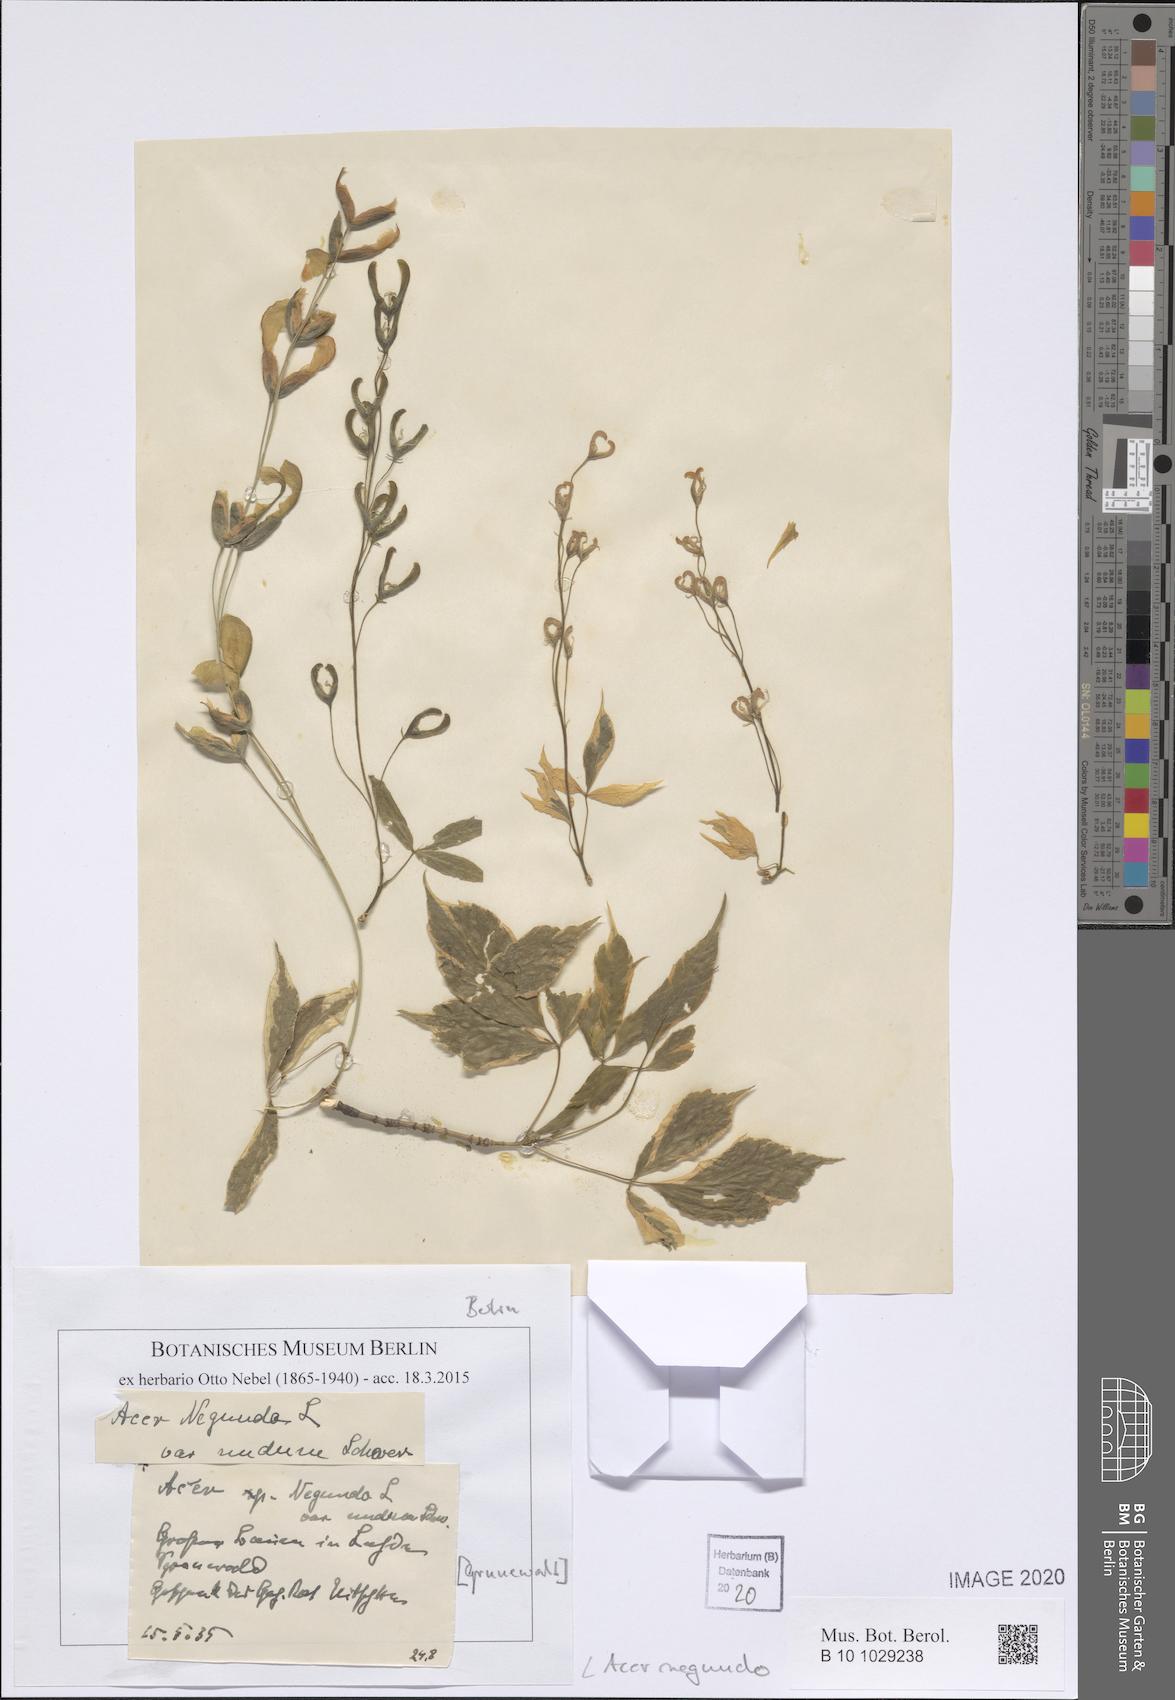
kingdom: Plantae
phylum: Tracheophyta
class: Magnoliopsida
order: Sapindales
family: Sapindaceae
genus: Acer
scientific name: Acer negundo
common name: Ashleaf maple
